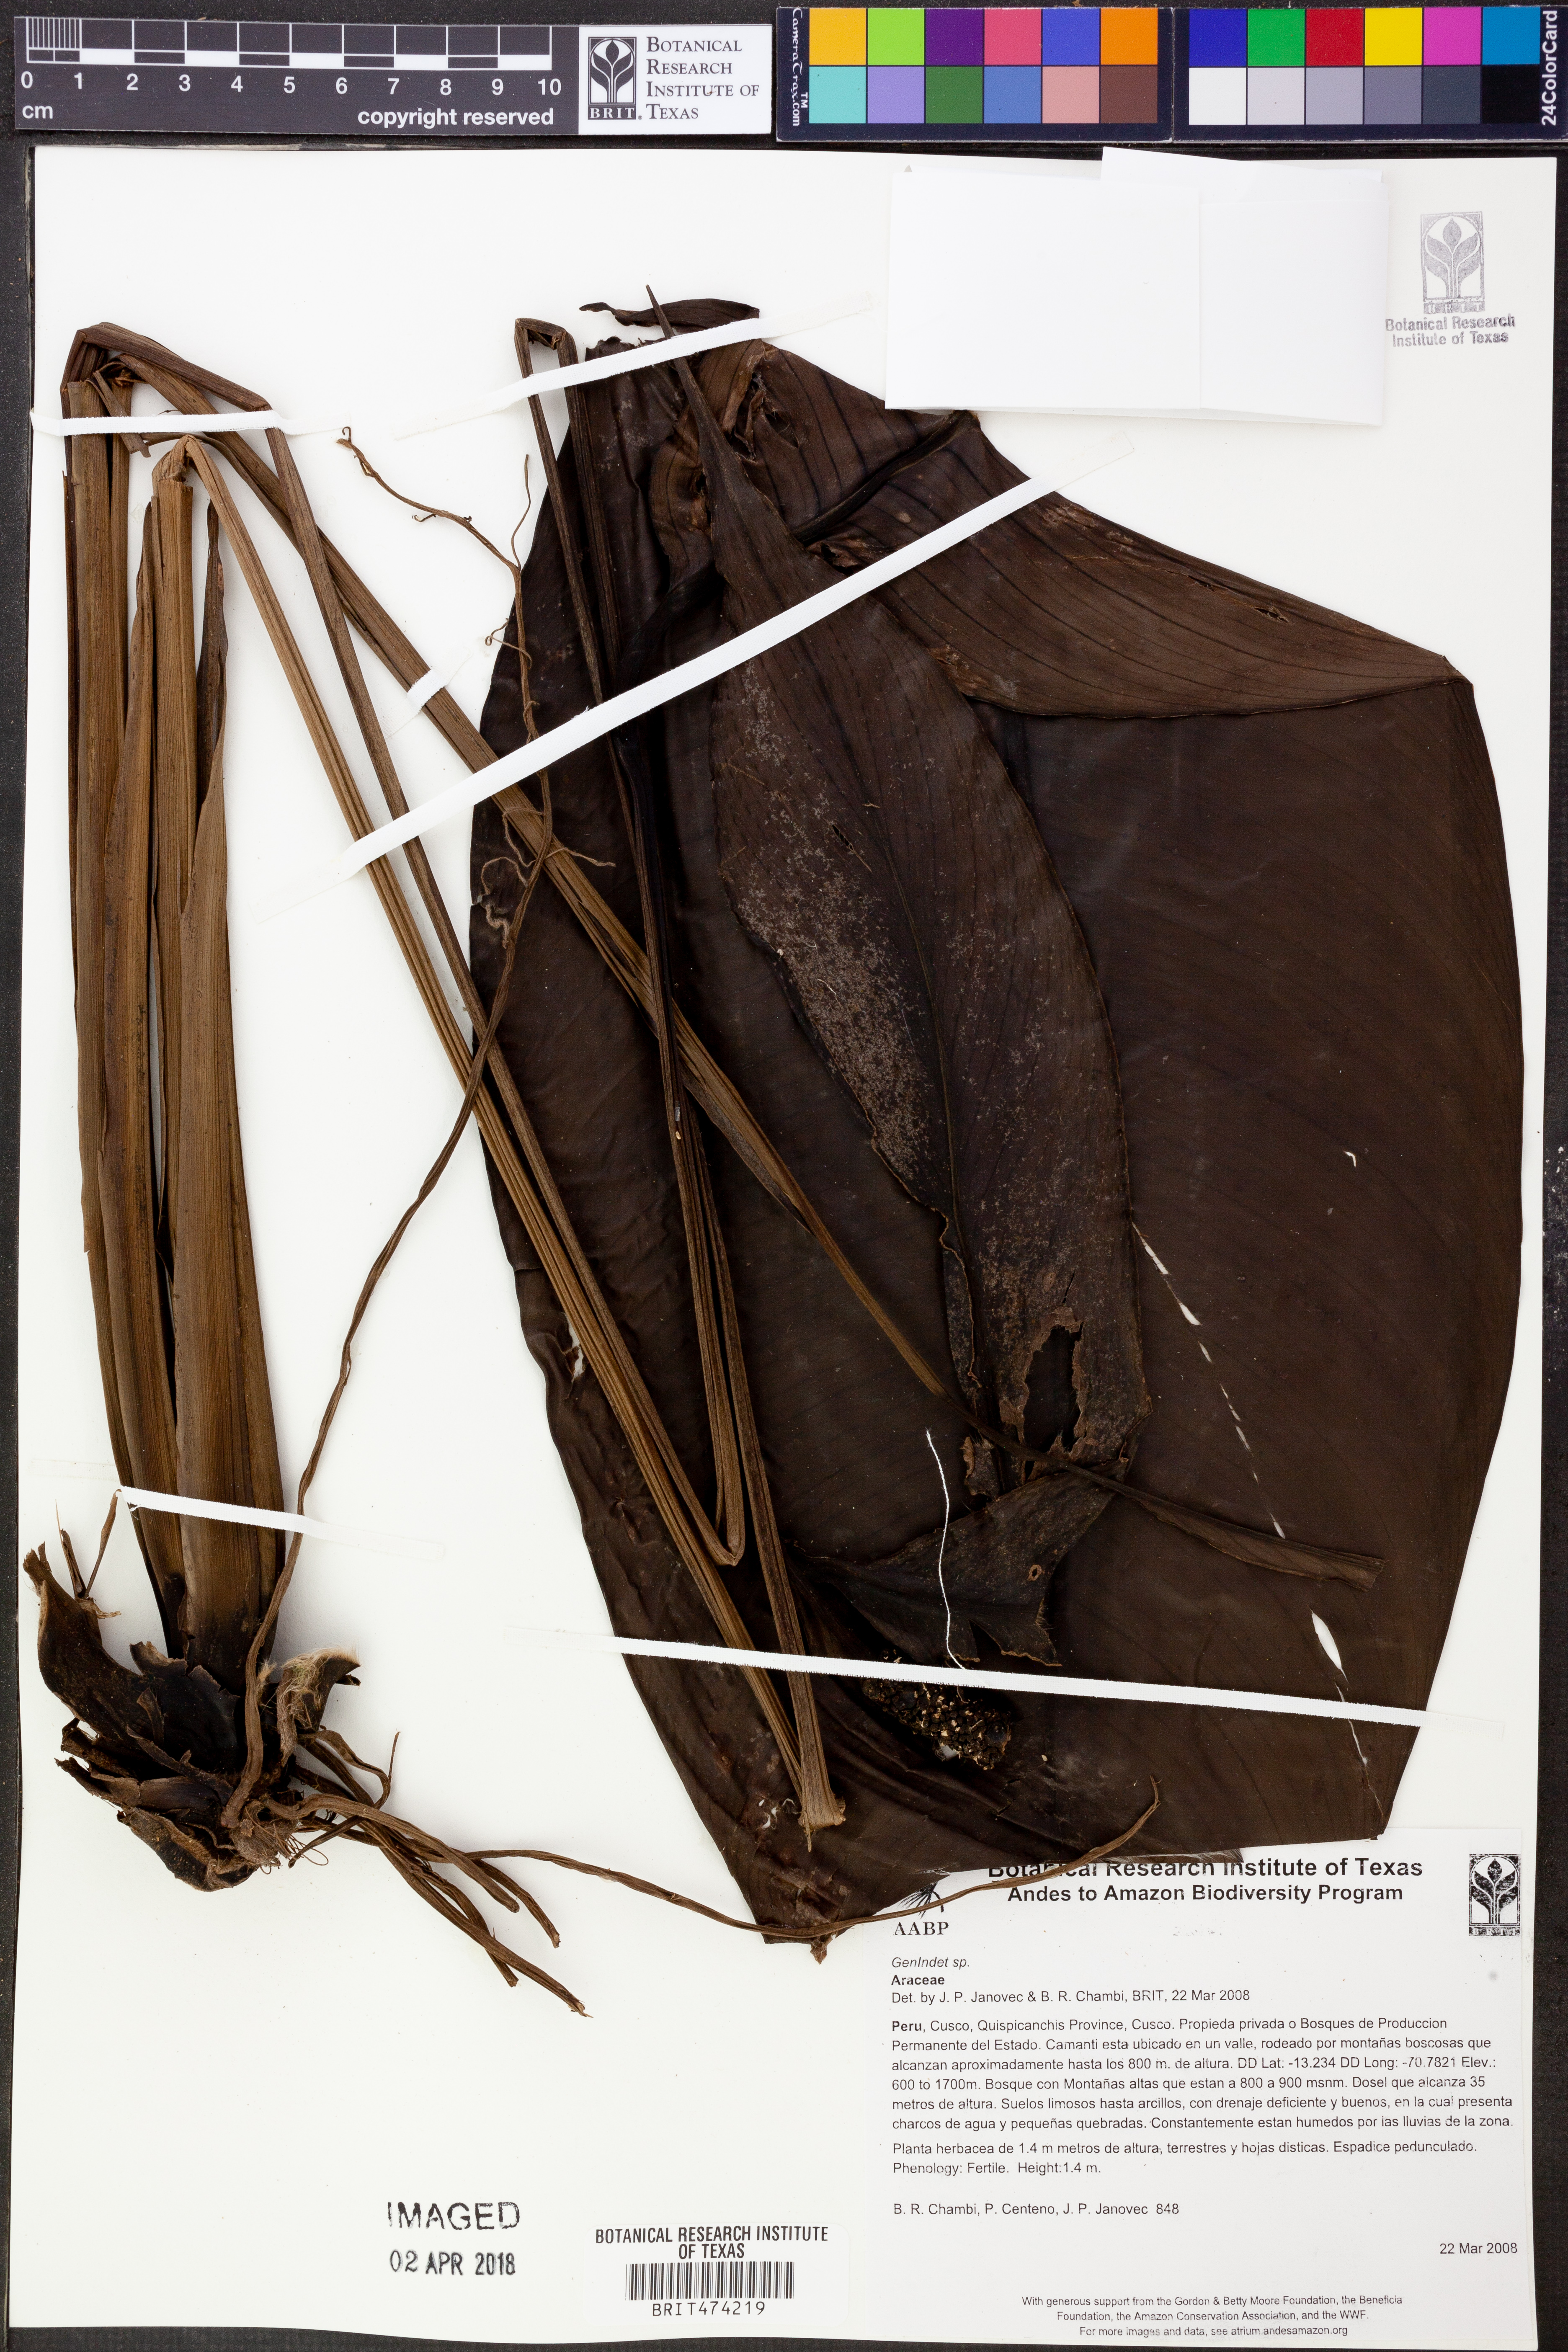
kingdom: Plantae
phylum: Tracheophyta
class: Liliopsida
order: Alismatales
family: Araceae
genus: Spathiphyllum
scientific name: Spathiphyllum juninense
